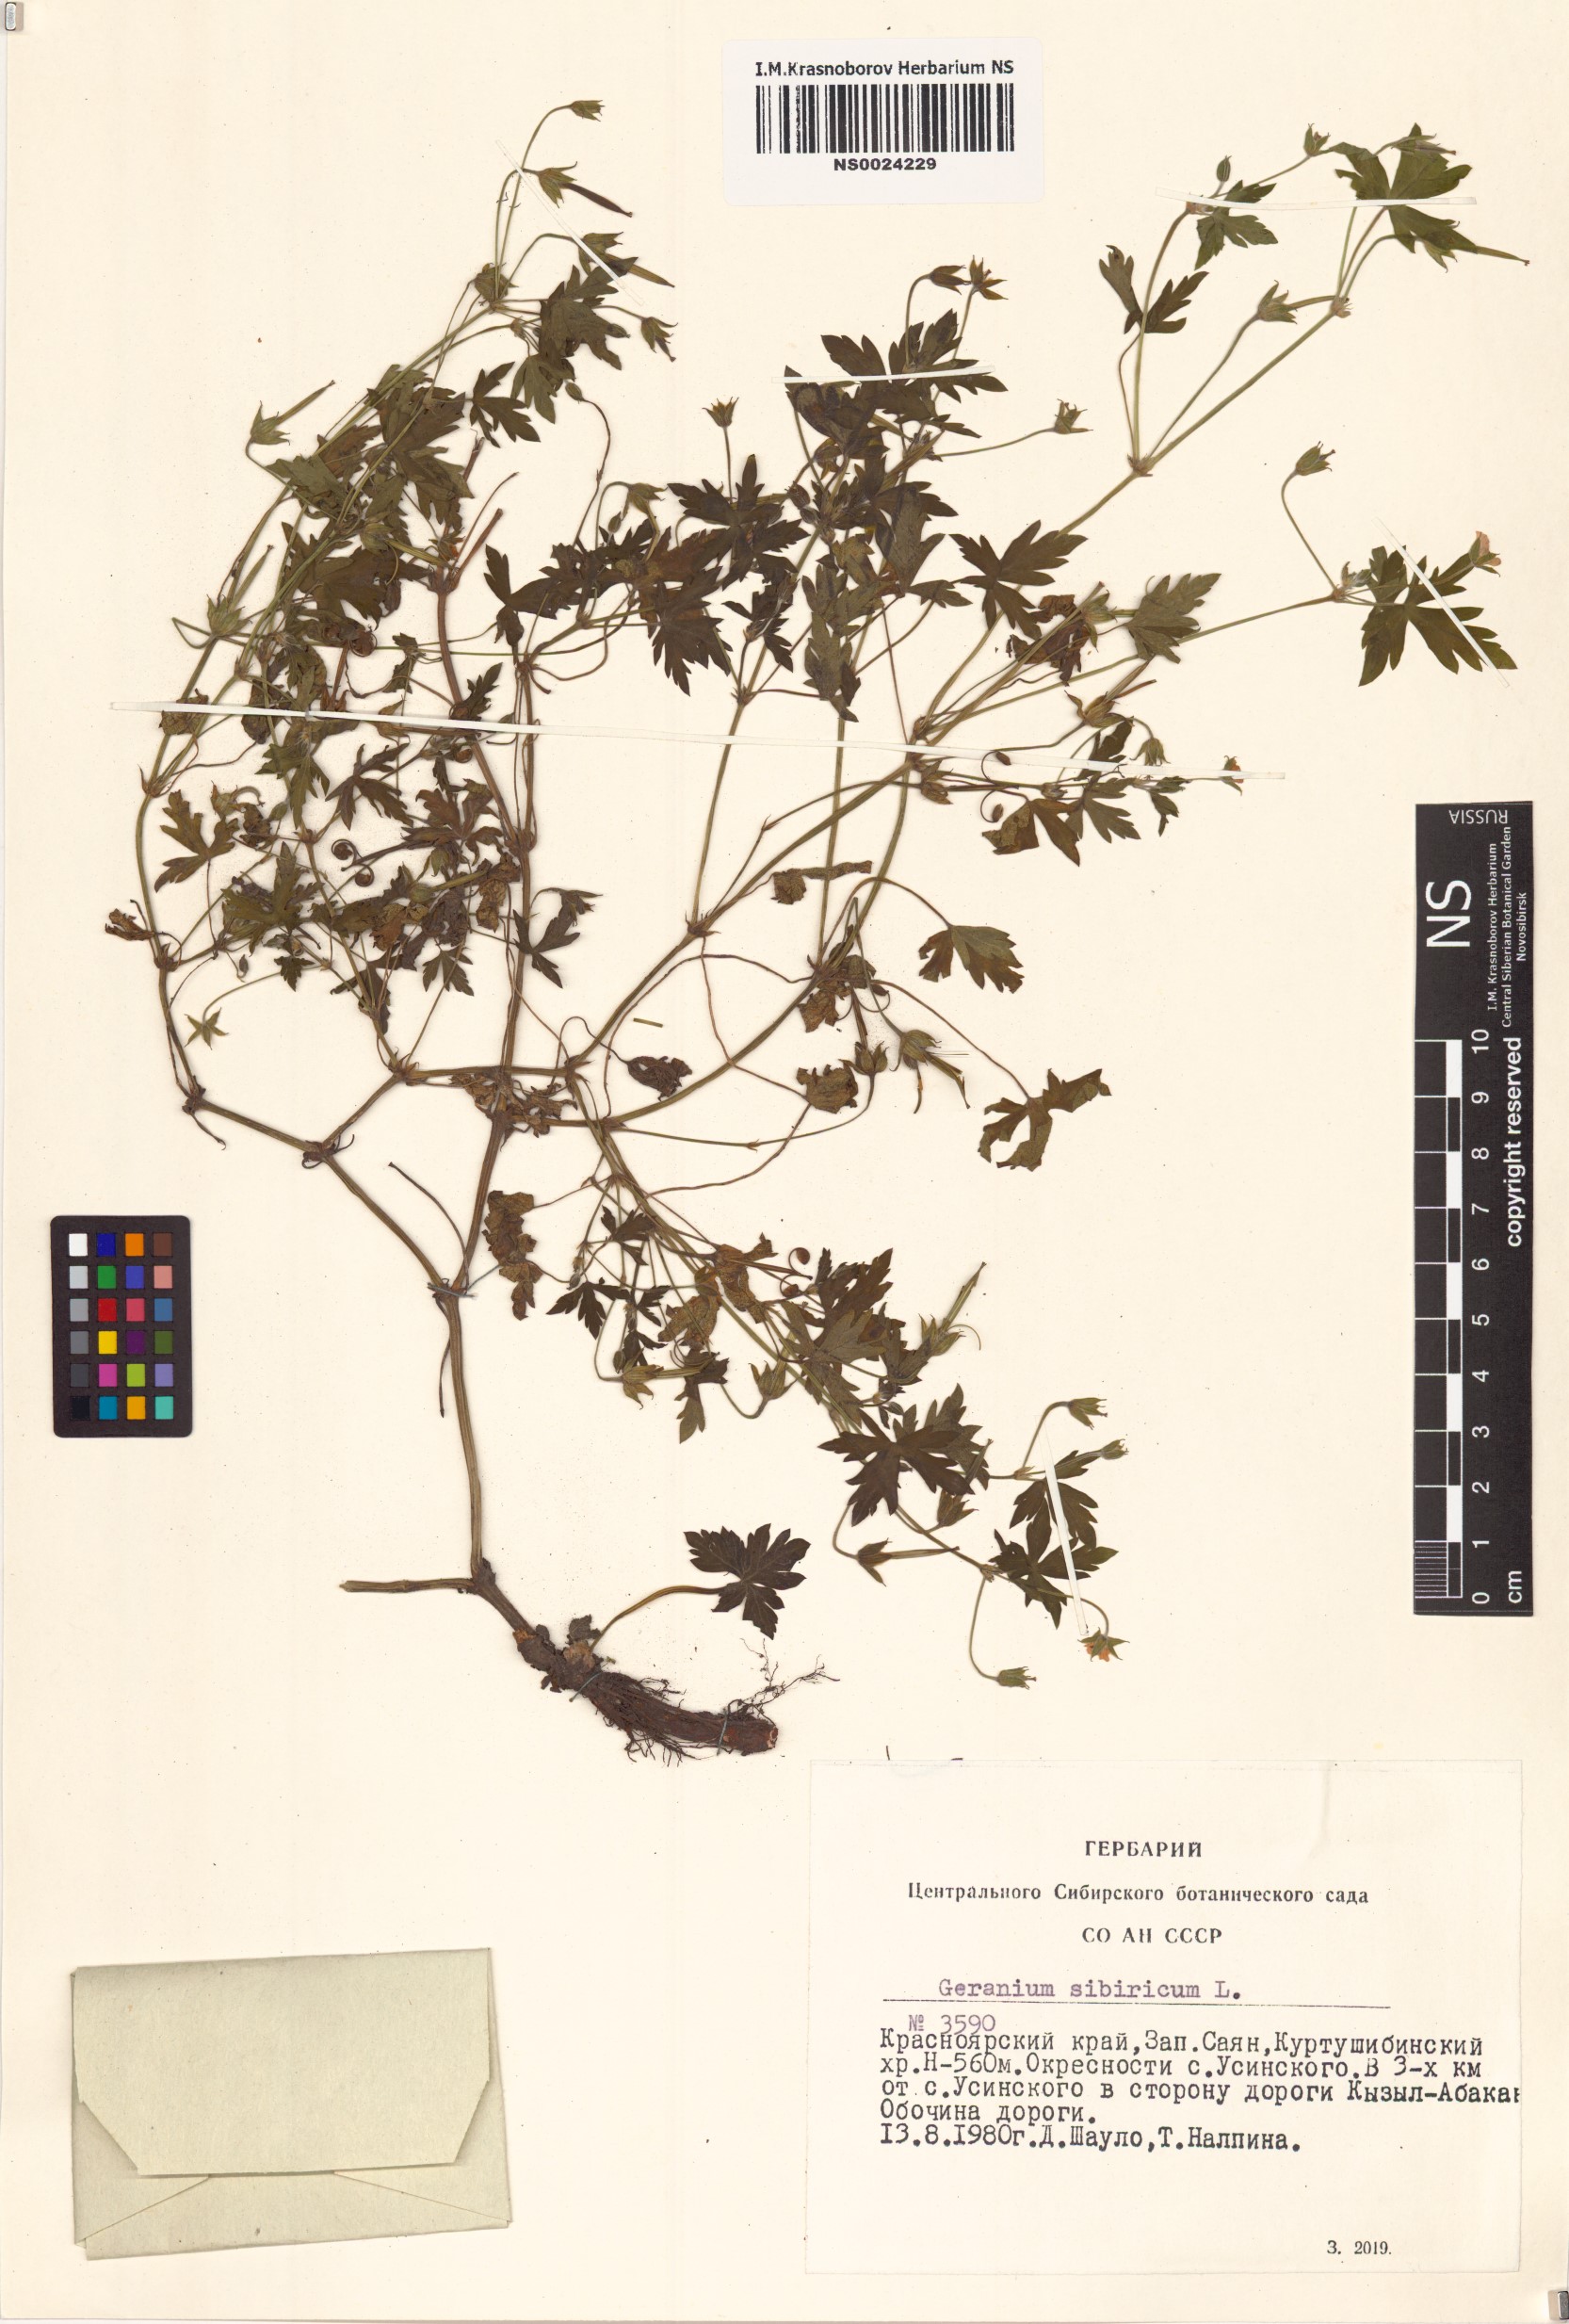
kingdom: Plantae
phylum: Tracheophyta
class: Magnoliopsida
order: Geraniales
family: Geraniaceae
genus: Geranium
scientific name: Geranium sibiricum
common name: Siberian crane's-bill
